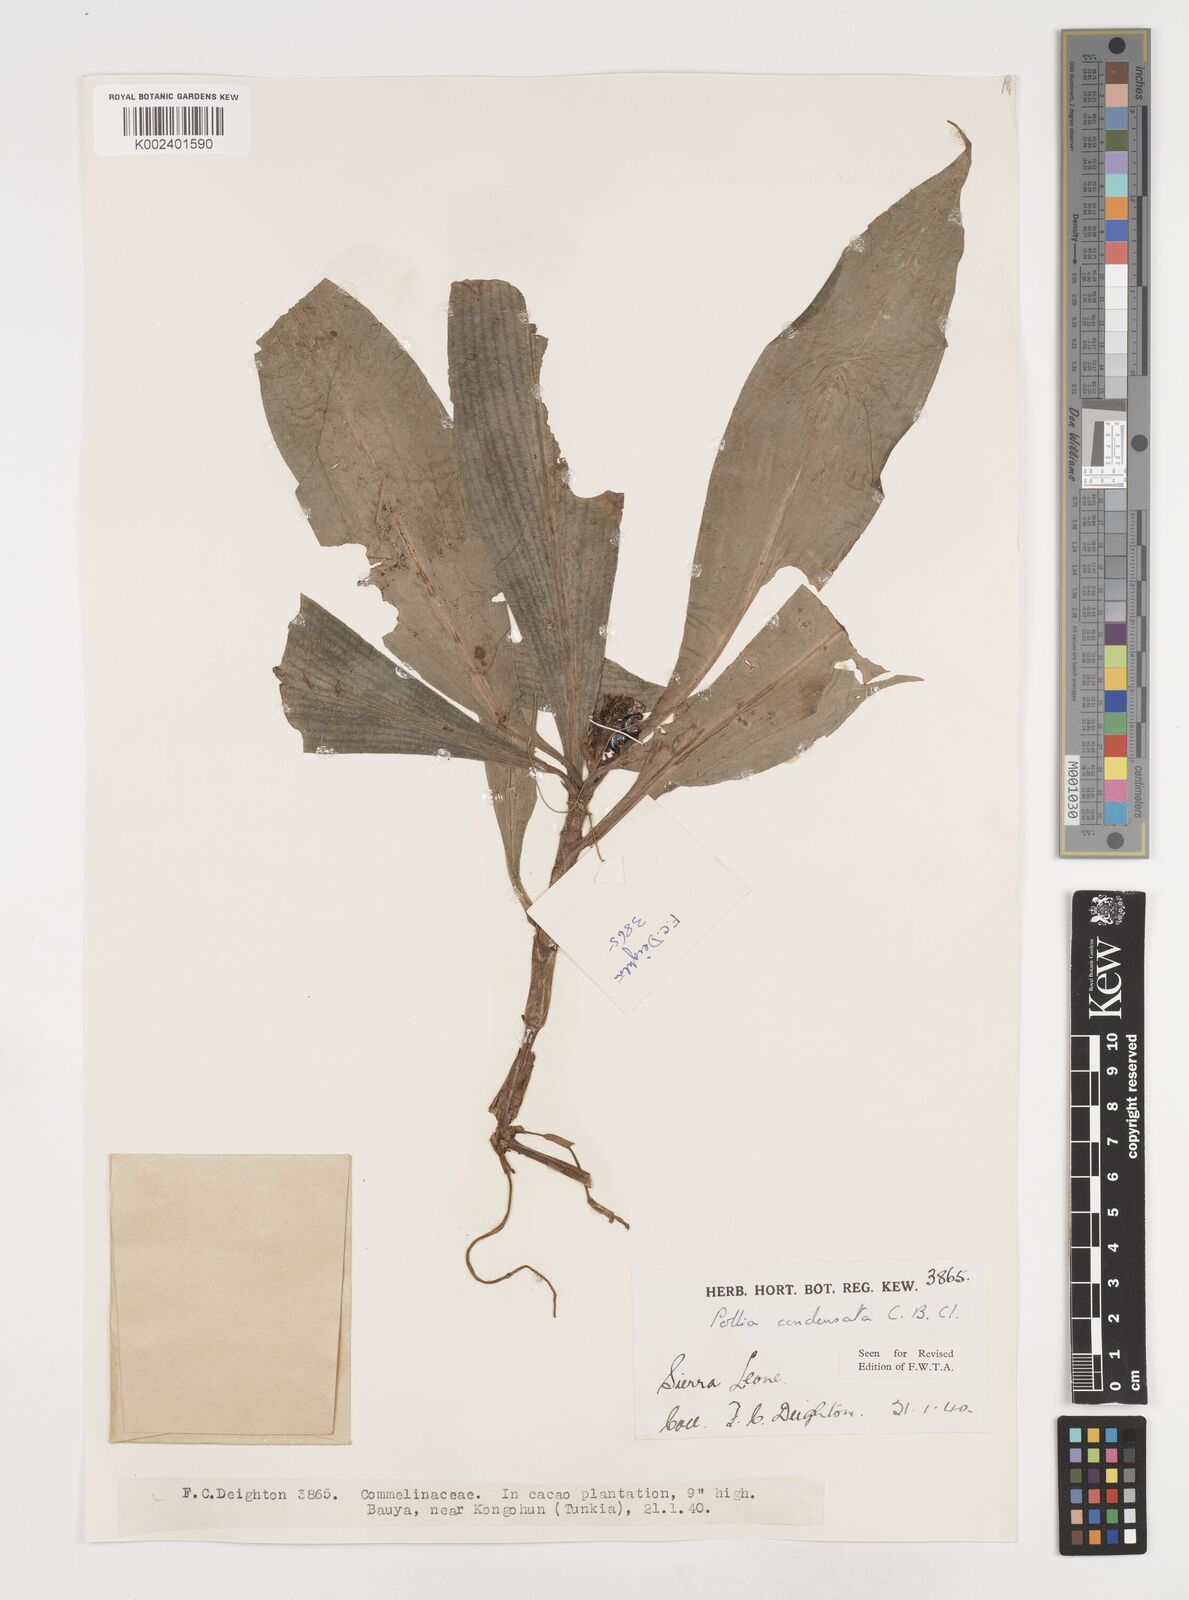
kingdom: Plantae
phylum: Tracheophyta
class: Liliopsida
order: Commelinales
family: Commelinaceae
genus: Pollia
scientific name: Pollia condensata
